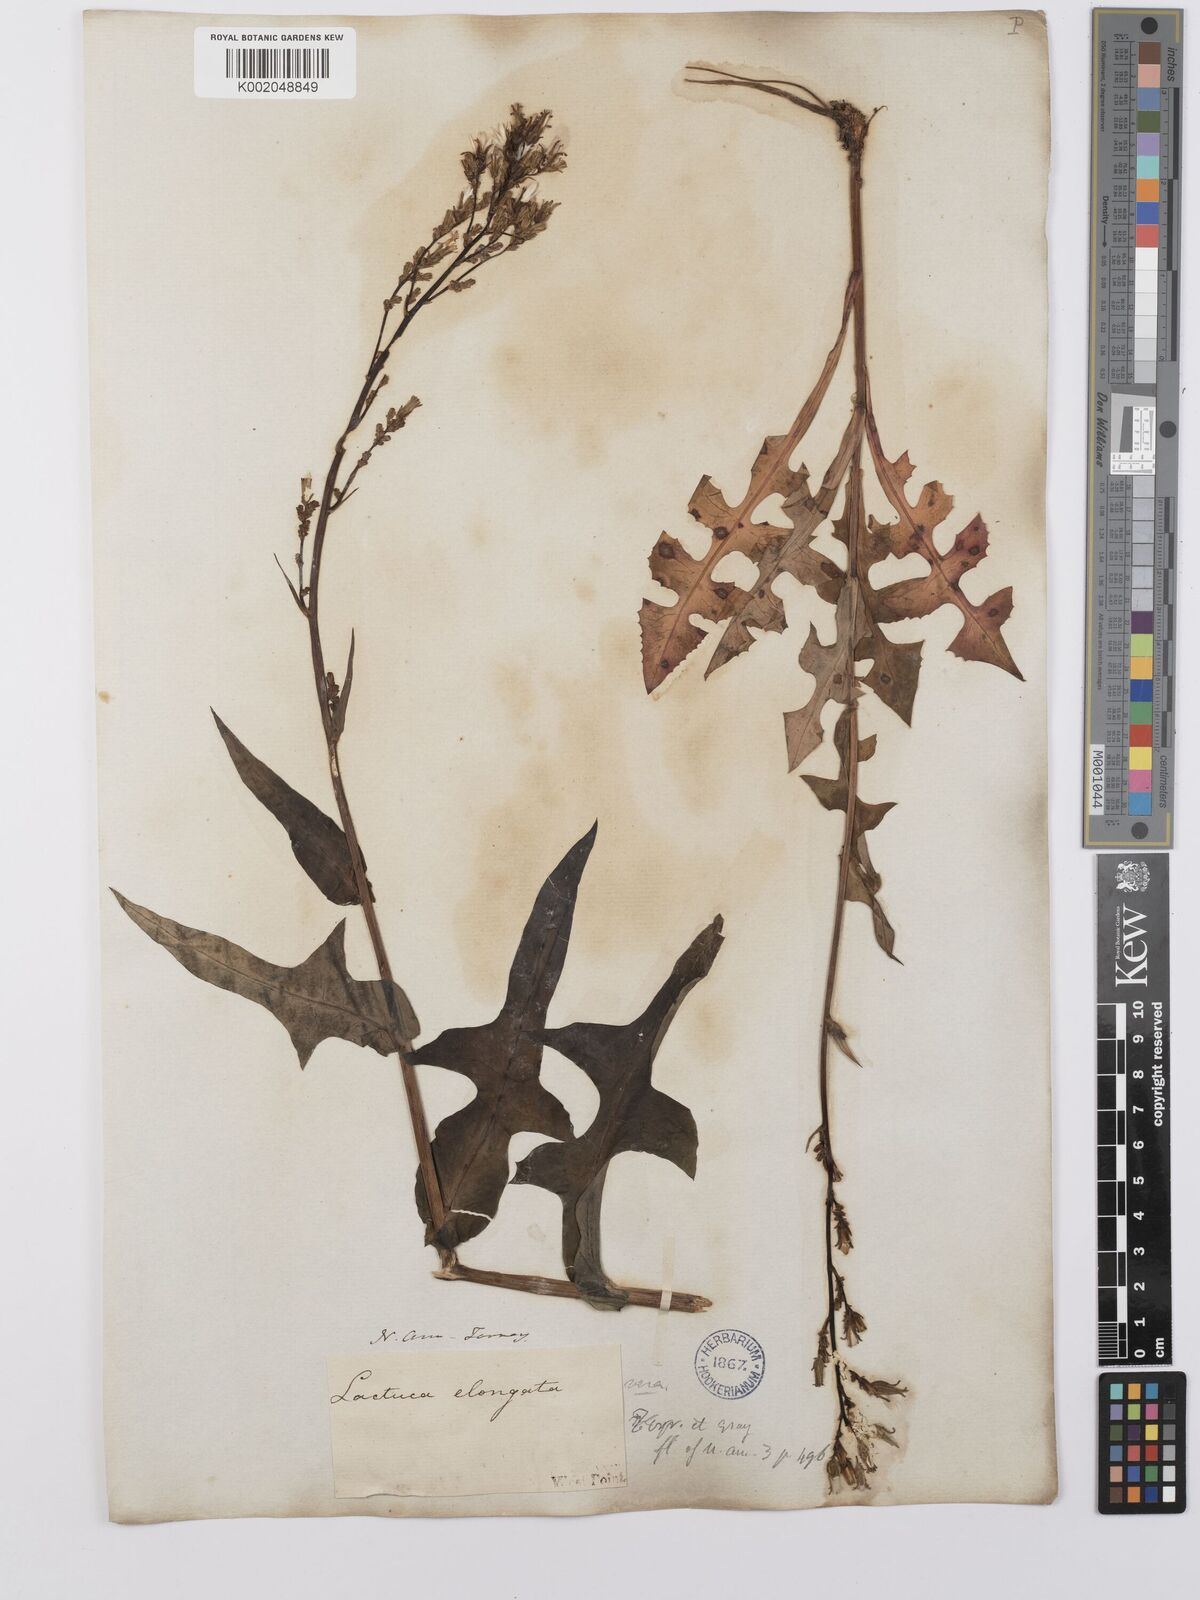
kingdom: Plantae
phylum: Tracheophyta
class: Magnoliopsida
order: Asterales
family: Asteraceae
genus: Lactuca
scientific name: Lactuca canadensis
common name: Canada lettuce
